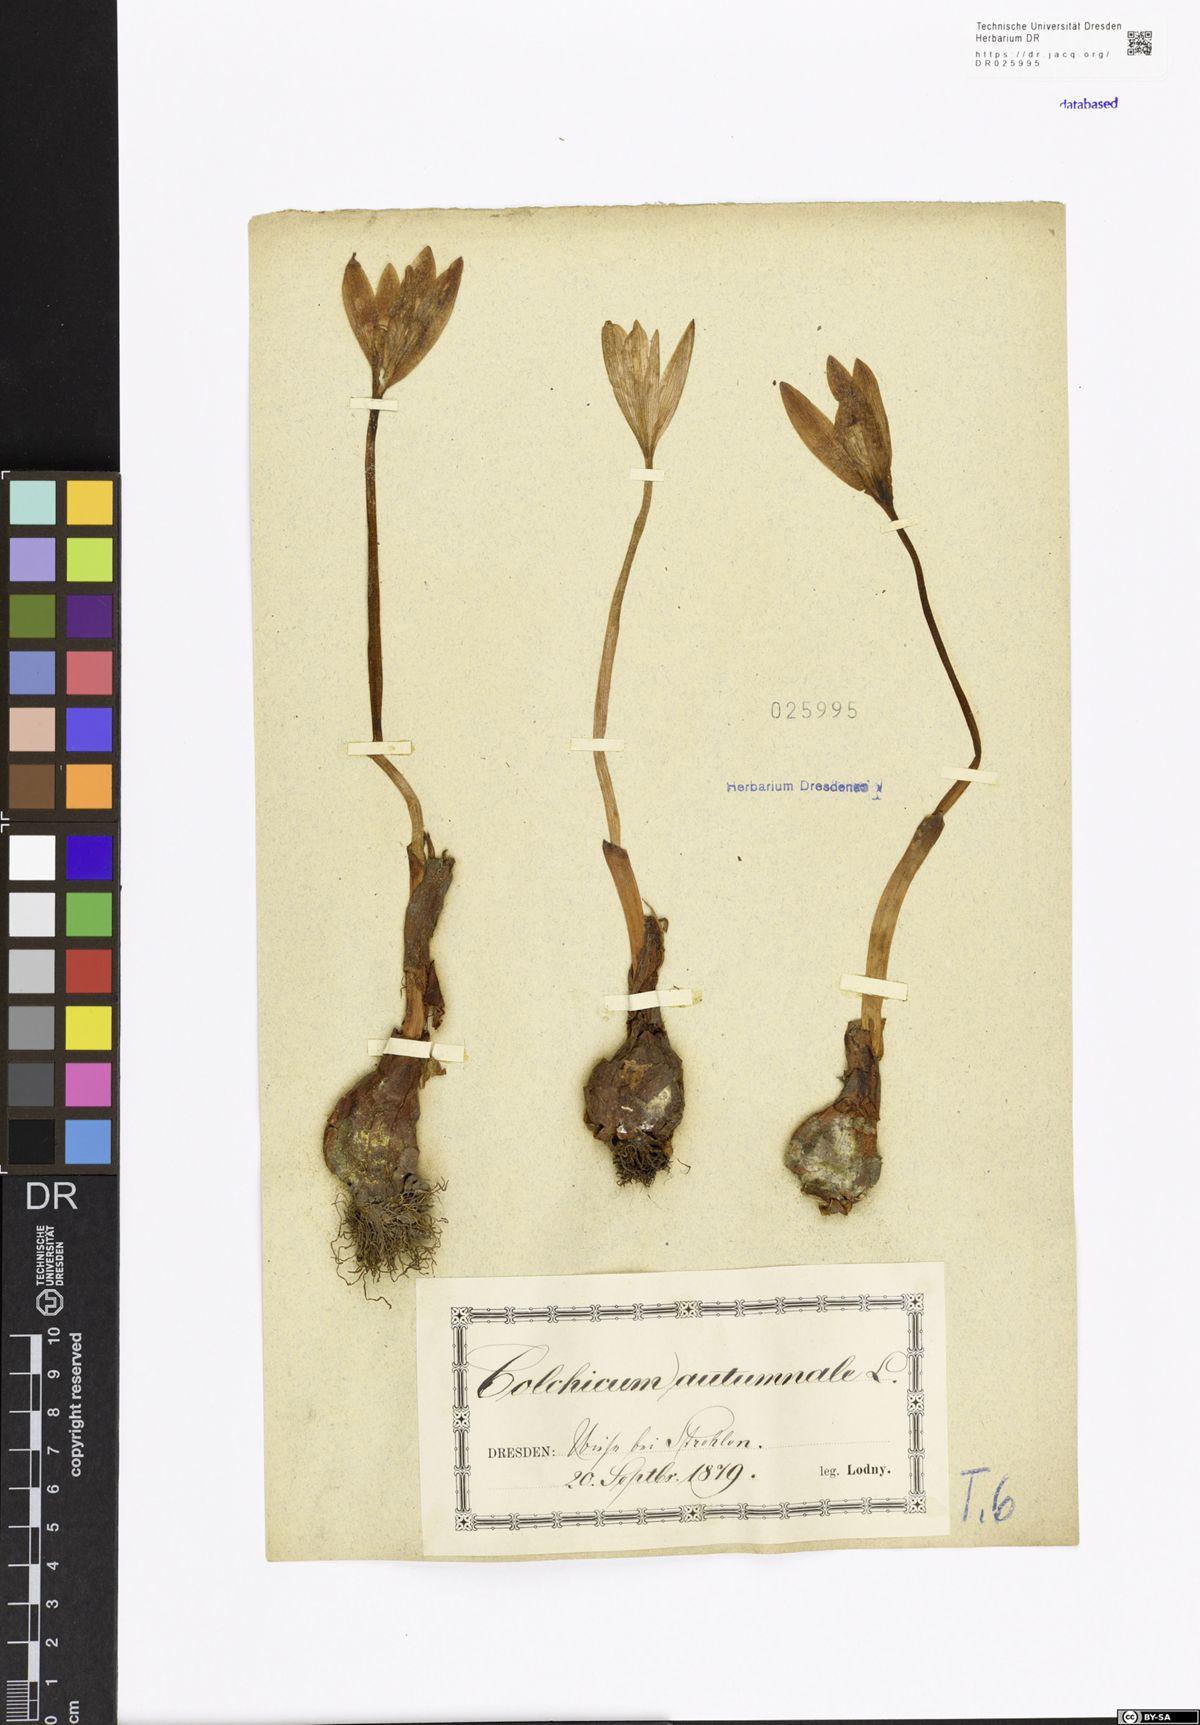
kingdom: Plantae
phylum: Tracheophyta
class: Liliopsida
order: Liliales
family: Colchicaceae
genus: Colchicum
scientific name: Colchicum autumnale
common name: Autumn crocus
